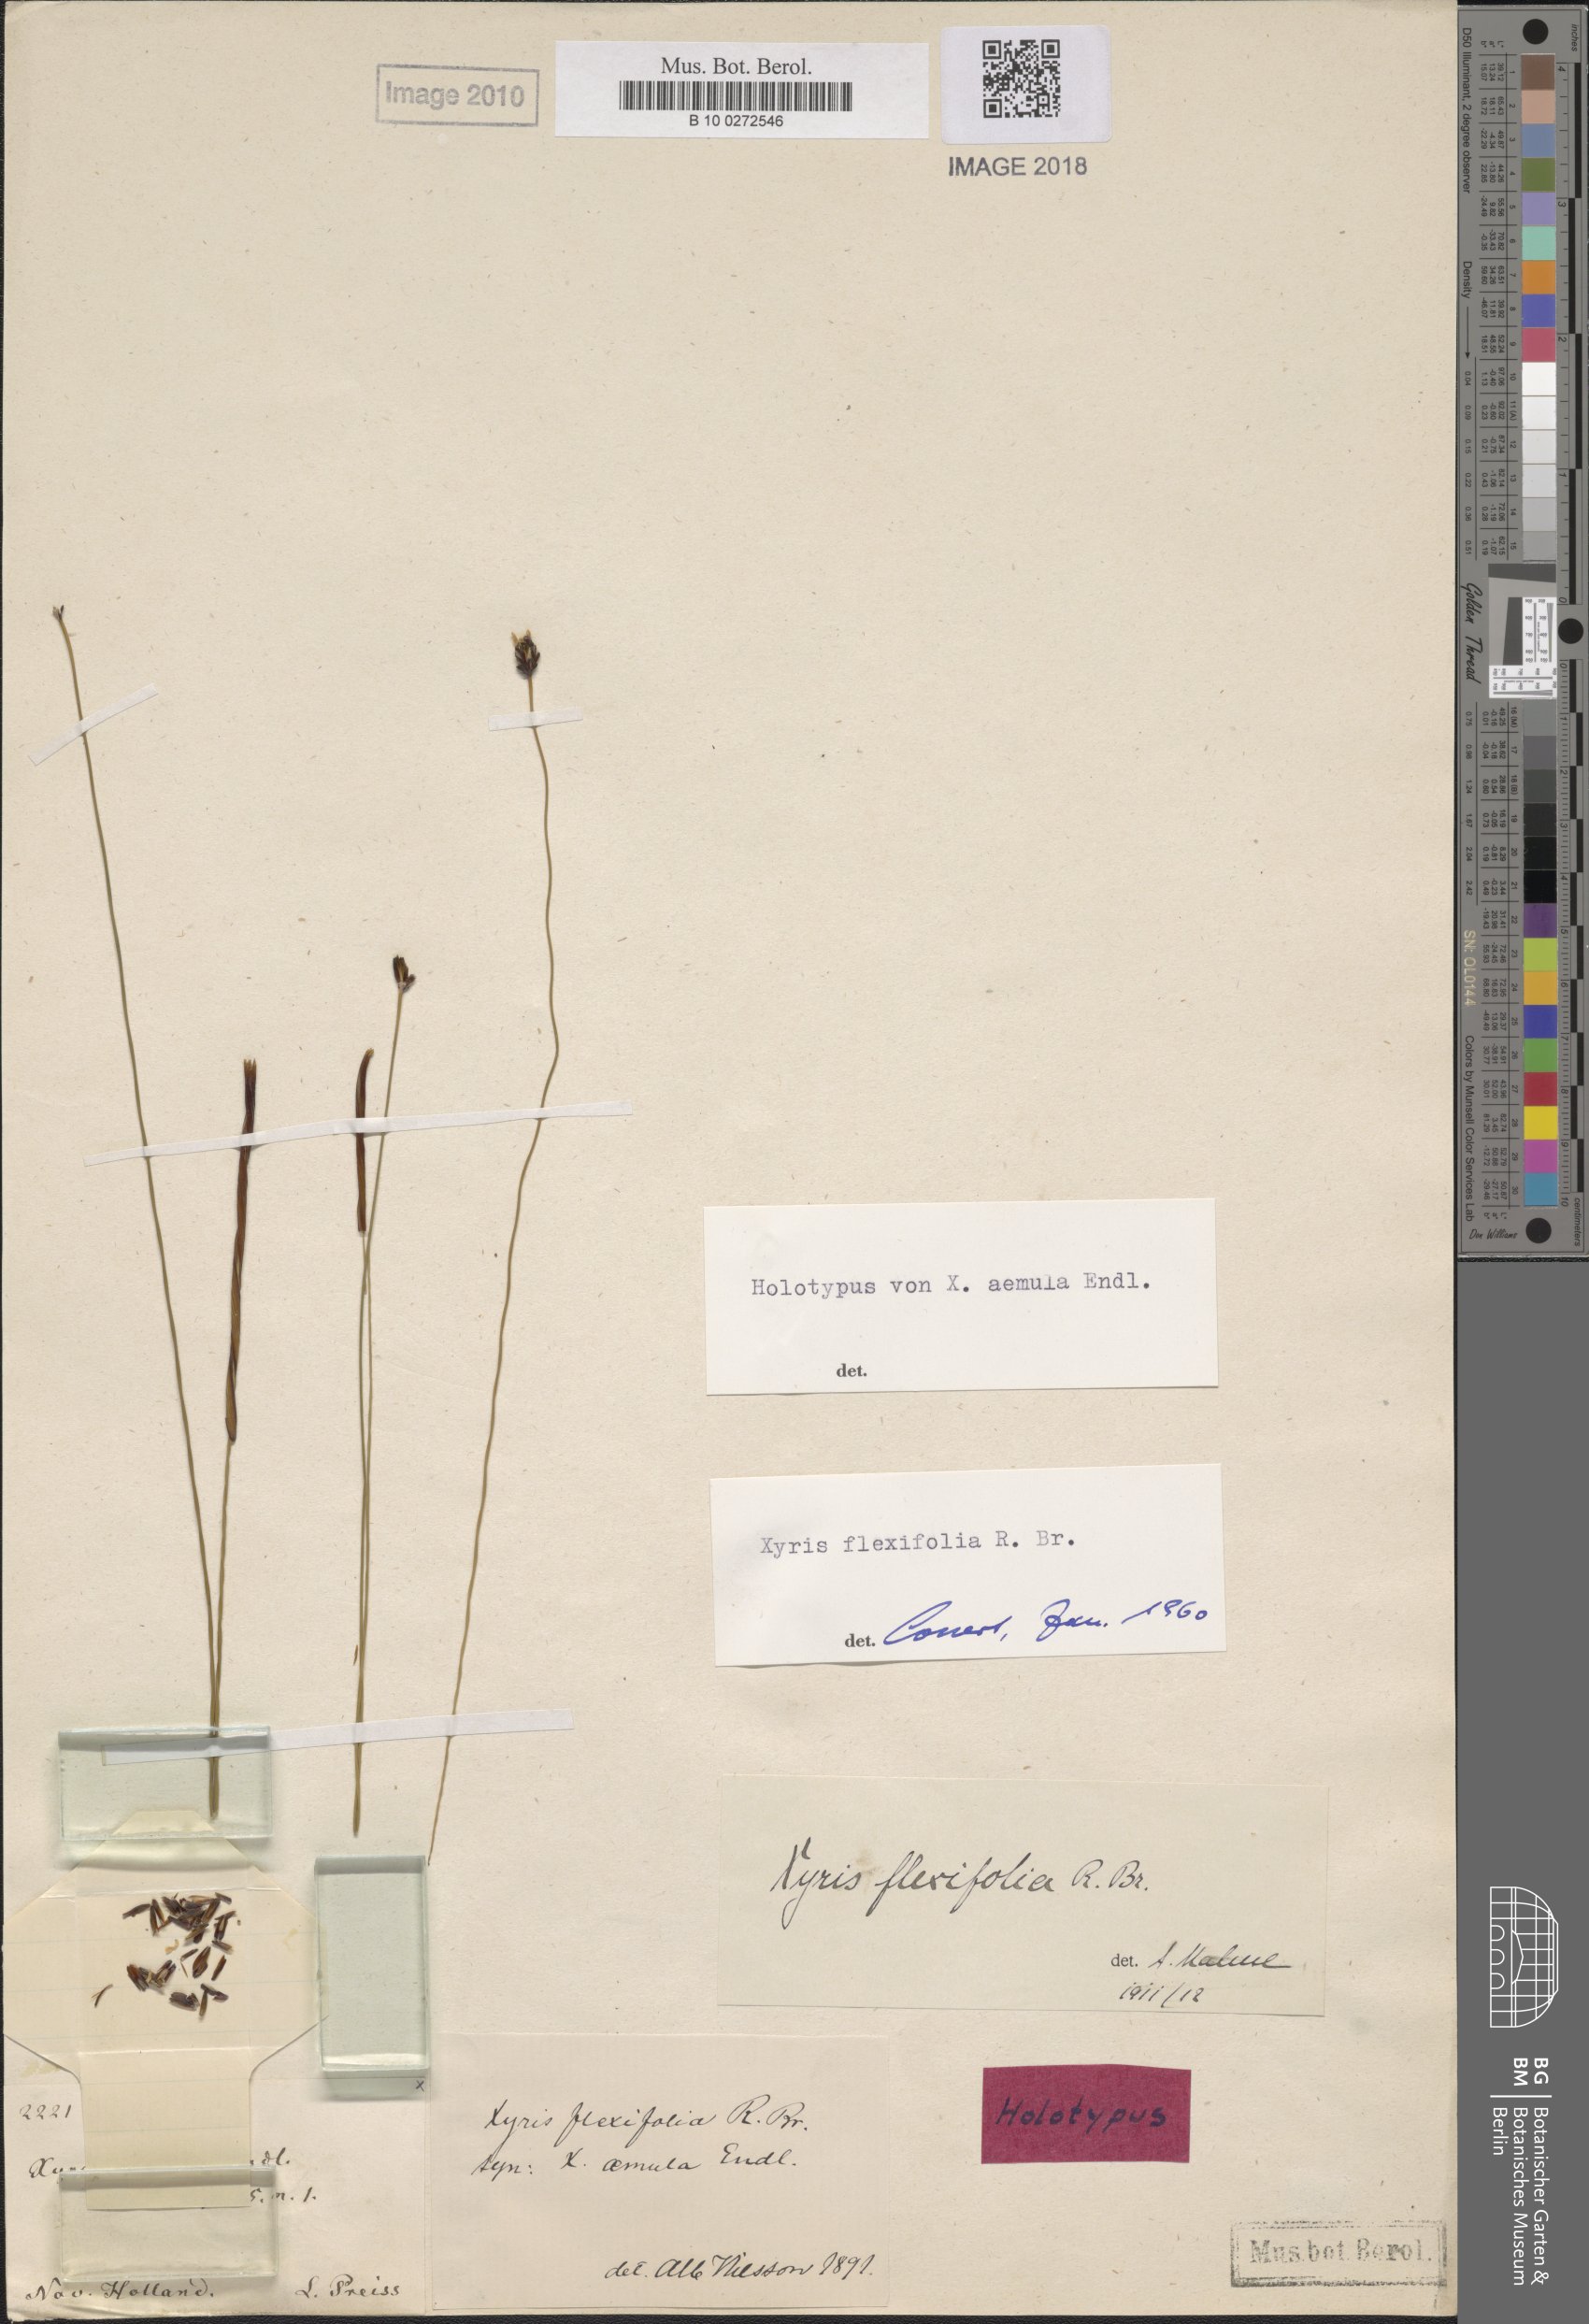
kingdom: Plantae
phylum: Tracheophyta
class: Liliopsida
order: Poales
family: Xyridaceae
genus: Xyris
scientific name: Xyris flexifolia
